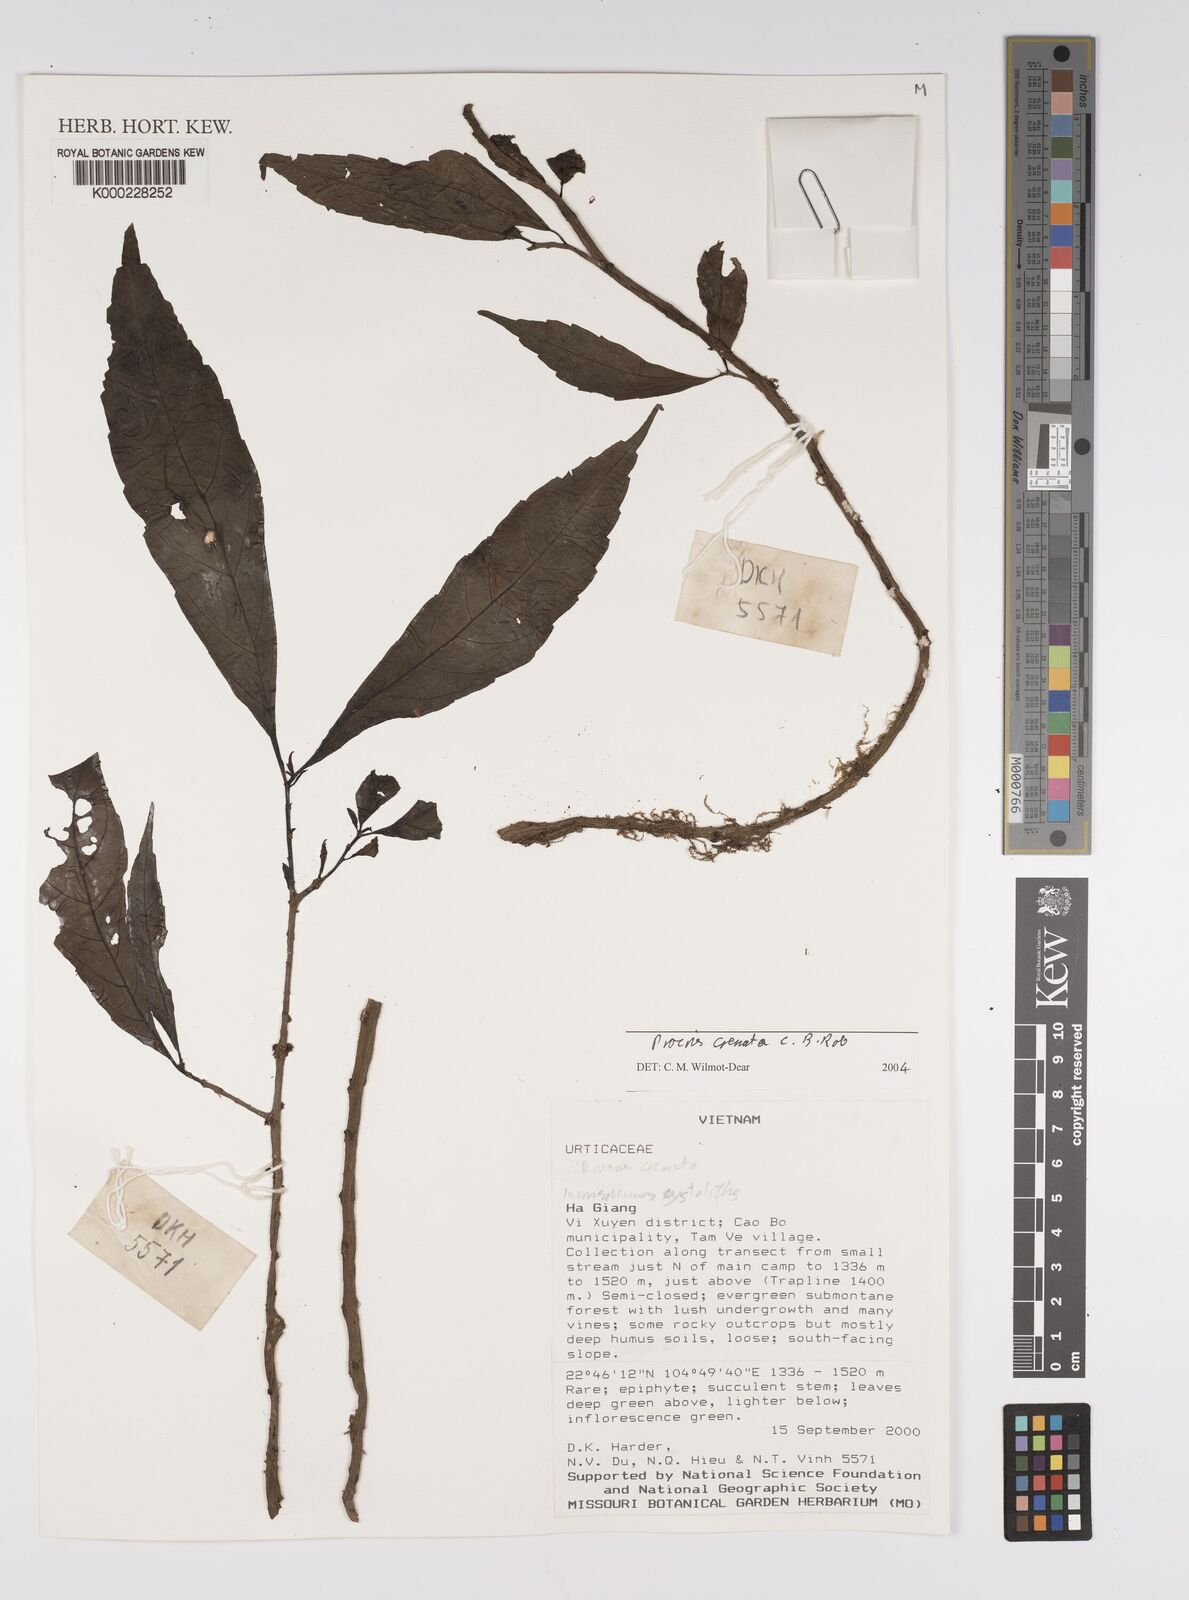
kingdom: Plantae
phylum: Tracheophyta
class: Magnoliopsida
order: Rosales
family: Urticaceae
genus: Procris
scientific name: Procris crenata
